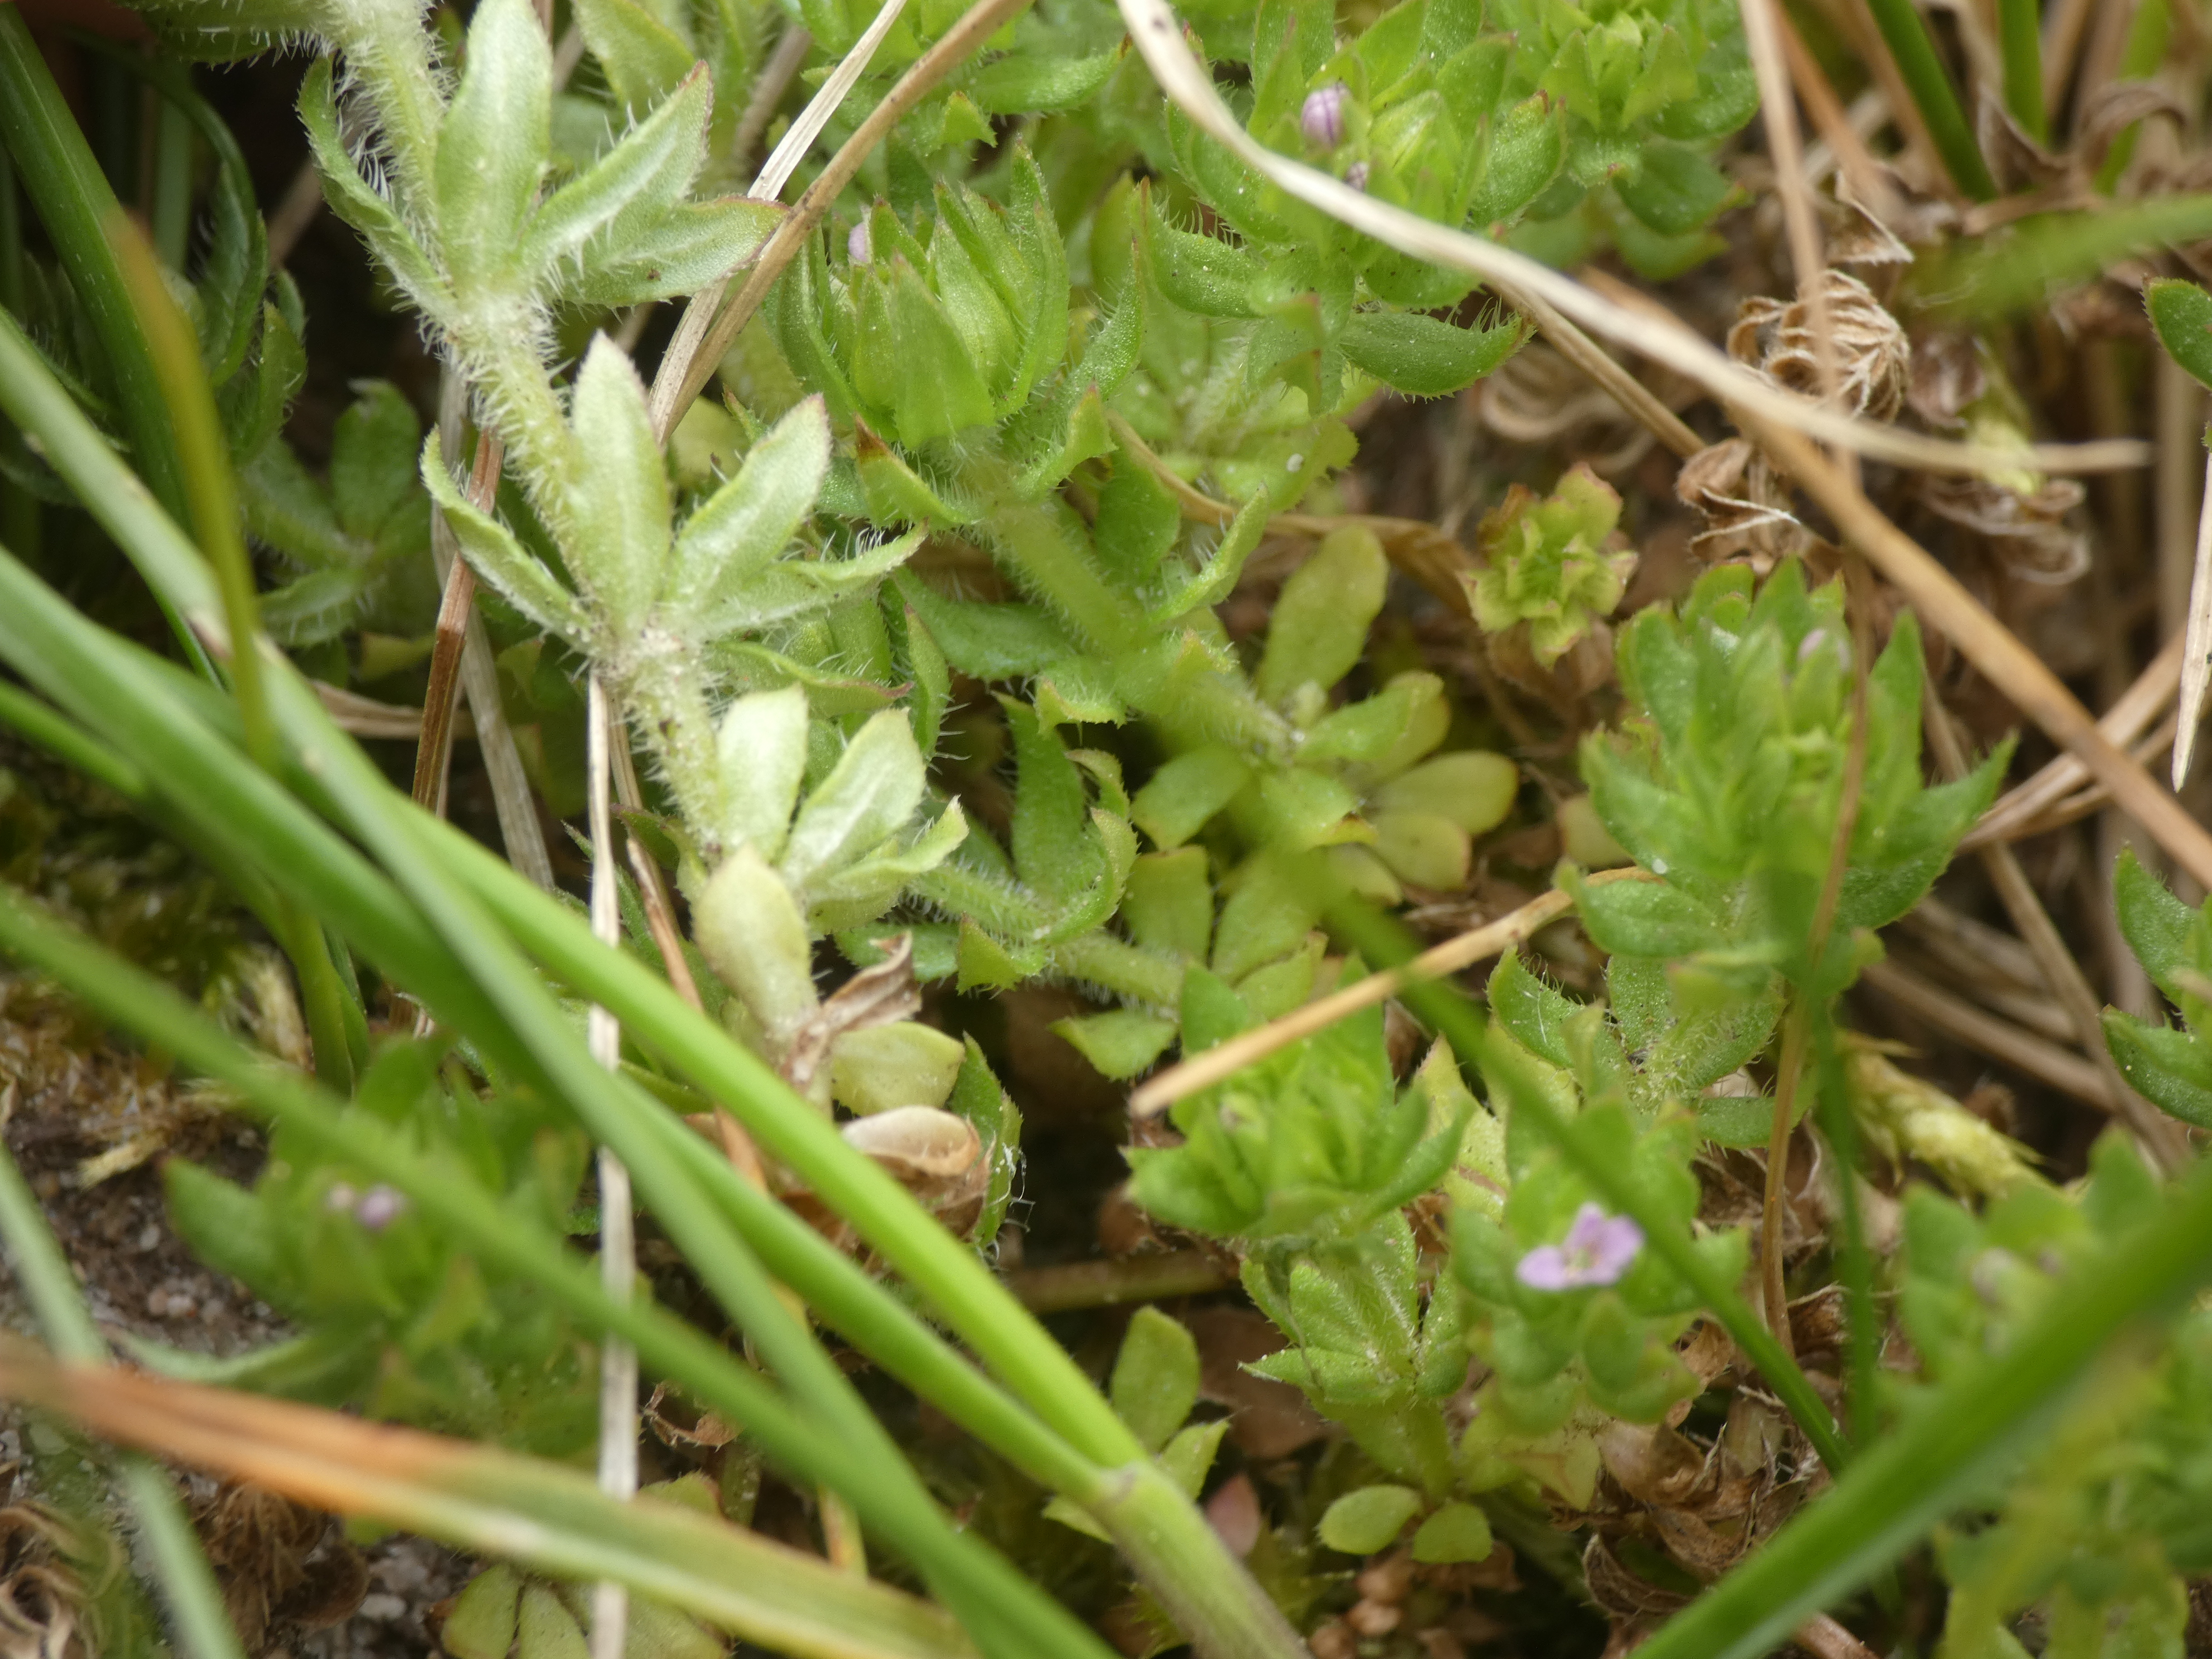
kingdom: Plantae
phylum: Tracheophyta
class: Magnoliopsida
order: Gentianales
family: Rubiaceae
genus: Sherardia
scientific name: Sherardia arvensis
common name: Blåstjerne
